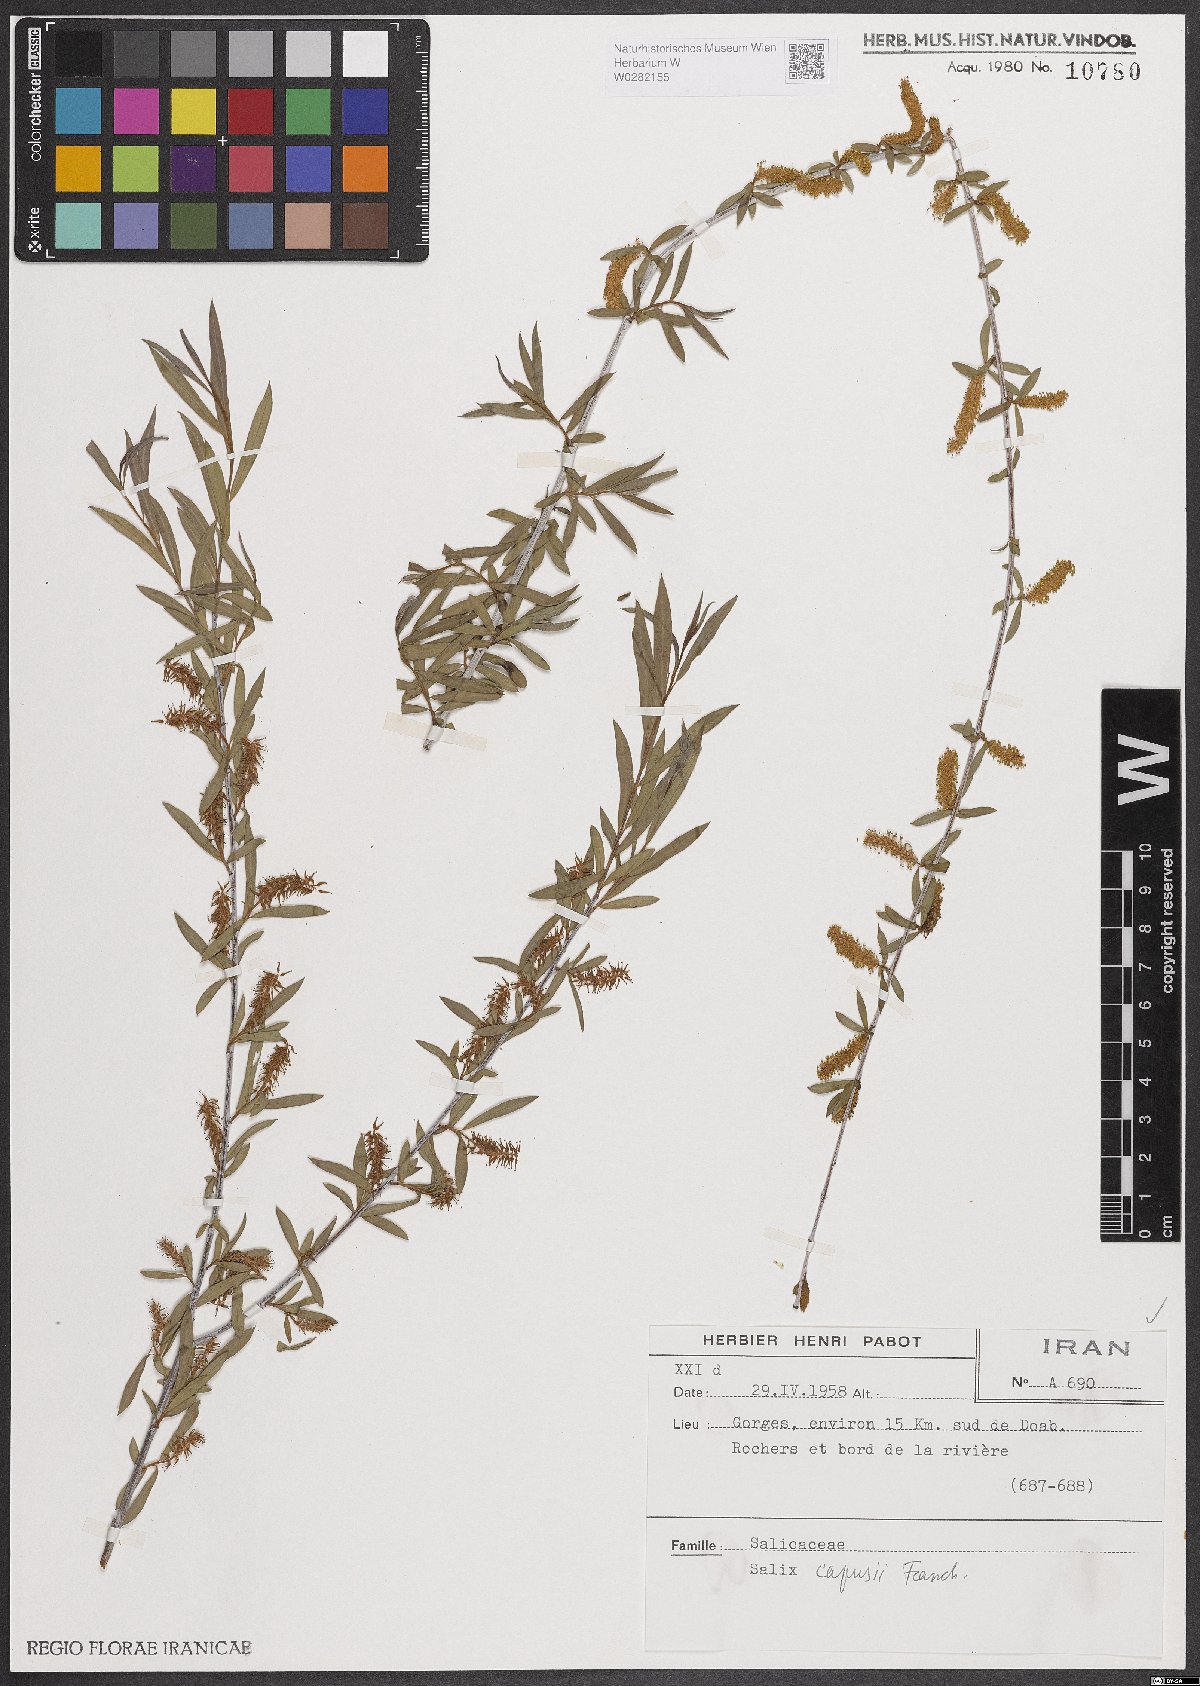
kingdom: Plantae
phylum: Tracheophyta
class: Magnoliopsida
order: Malpighiales
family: Salicaceae
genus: Salix
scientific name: Salix capusii
